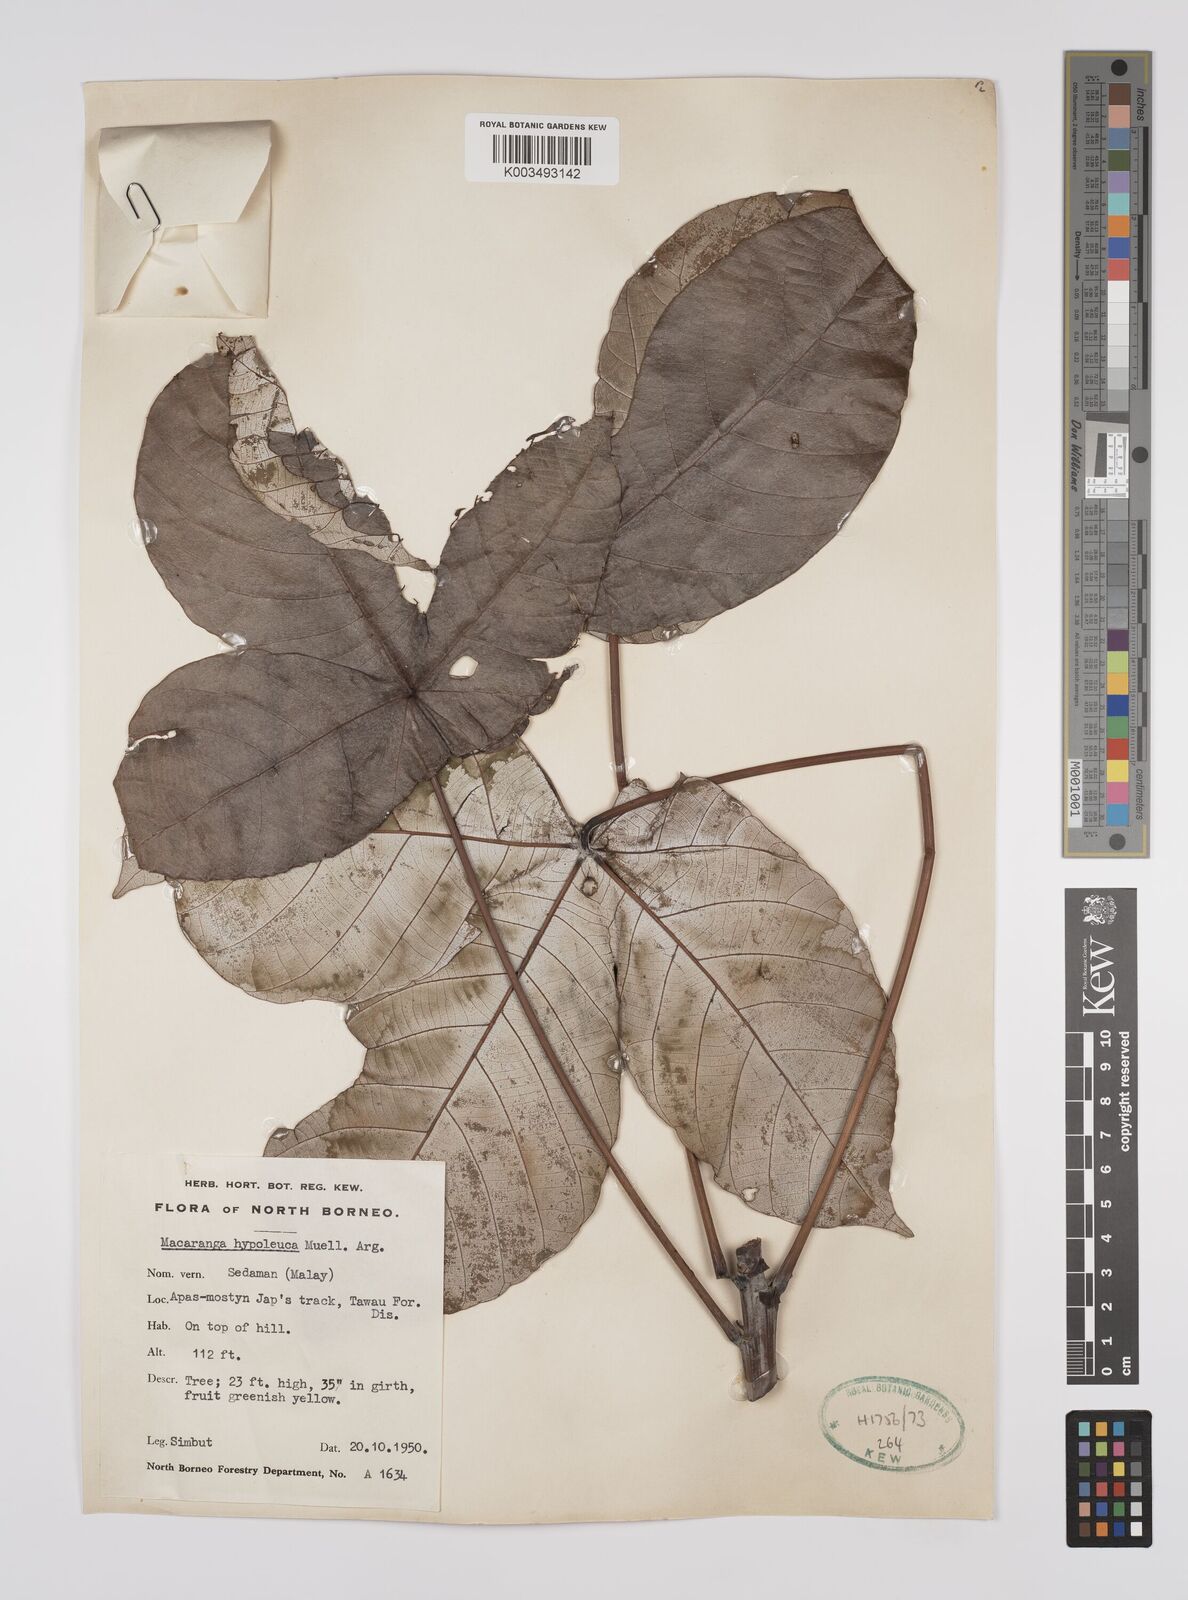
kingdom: Plantae
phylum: Tracheophyta
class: Magnoliopsida
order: Malpighiales
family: Euphorbiaceae
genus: Macaranga
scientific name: Macaranga hypoleuca
